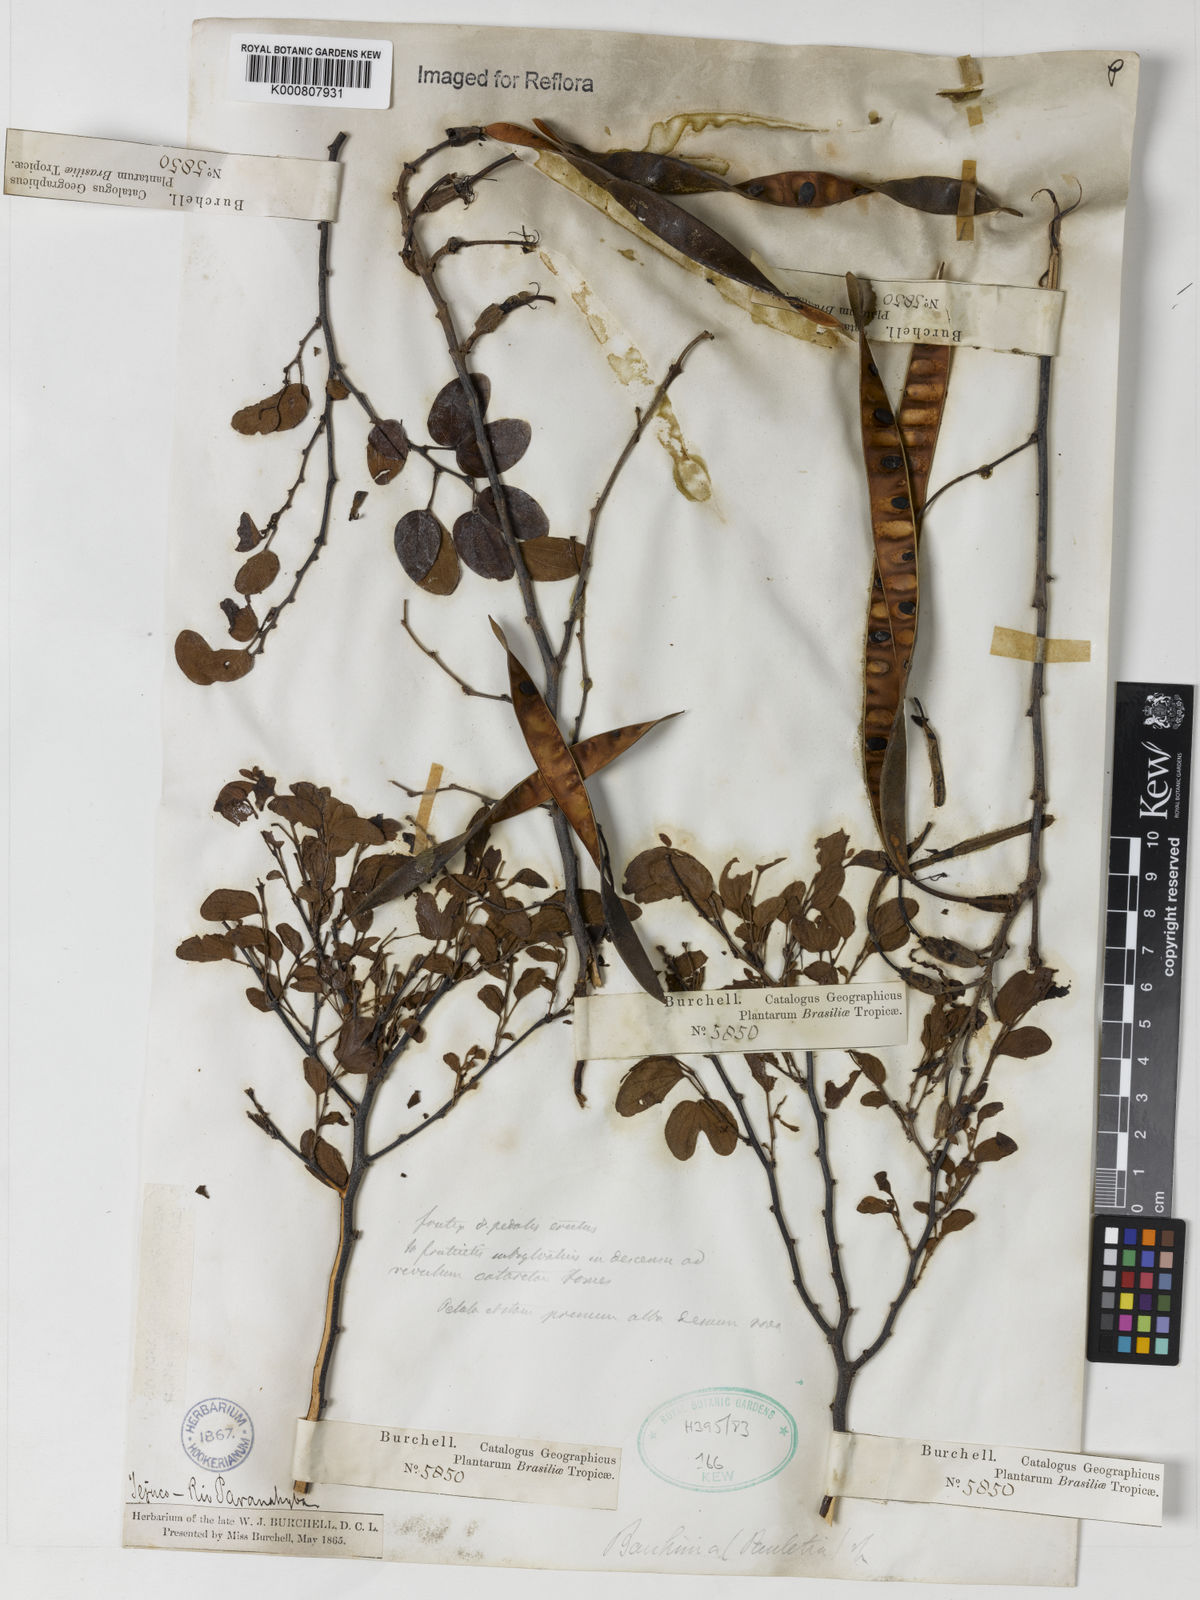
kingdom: Plantae
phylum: Tracheophyta
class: Magnoliopsida
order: Fabales
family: Fabaceae
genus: Bauhinia
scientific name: Bauhinia
